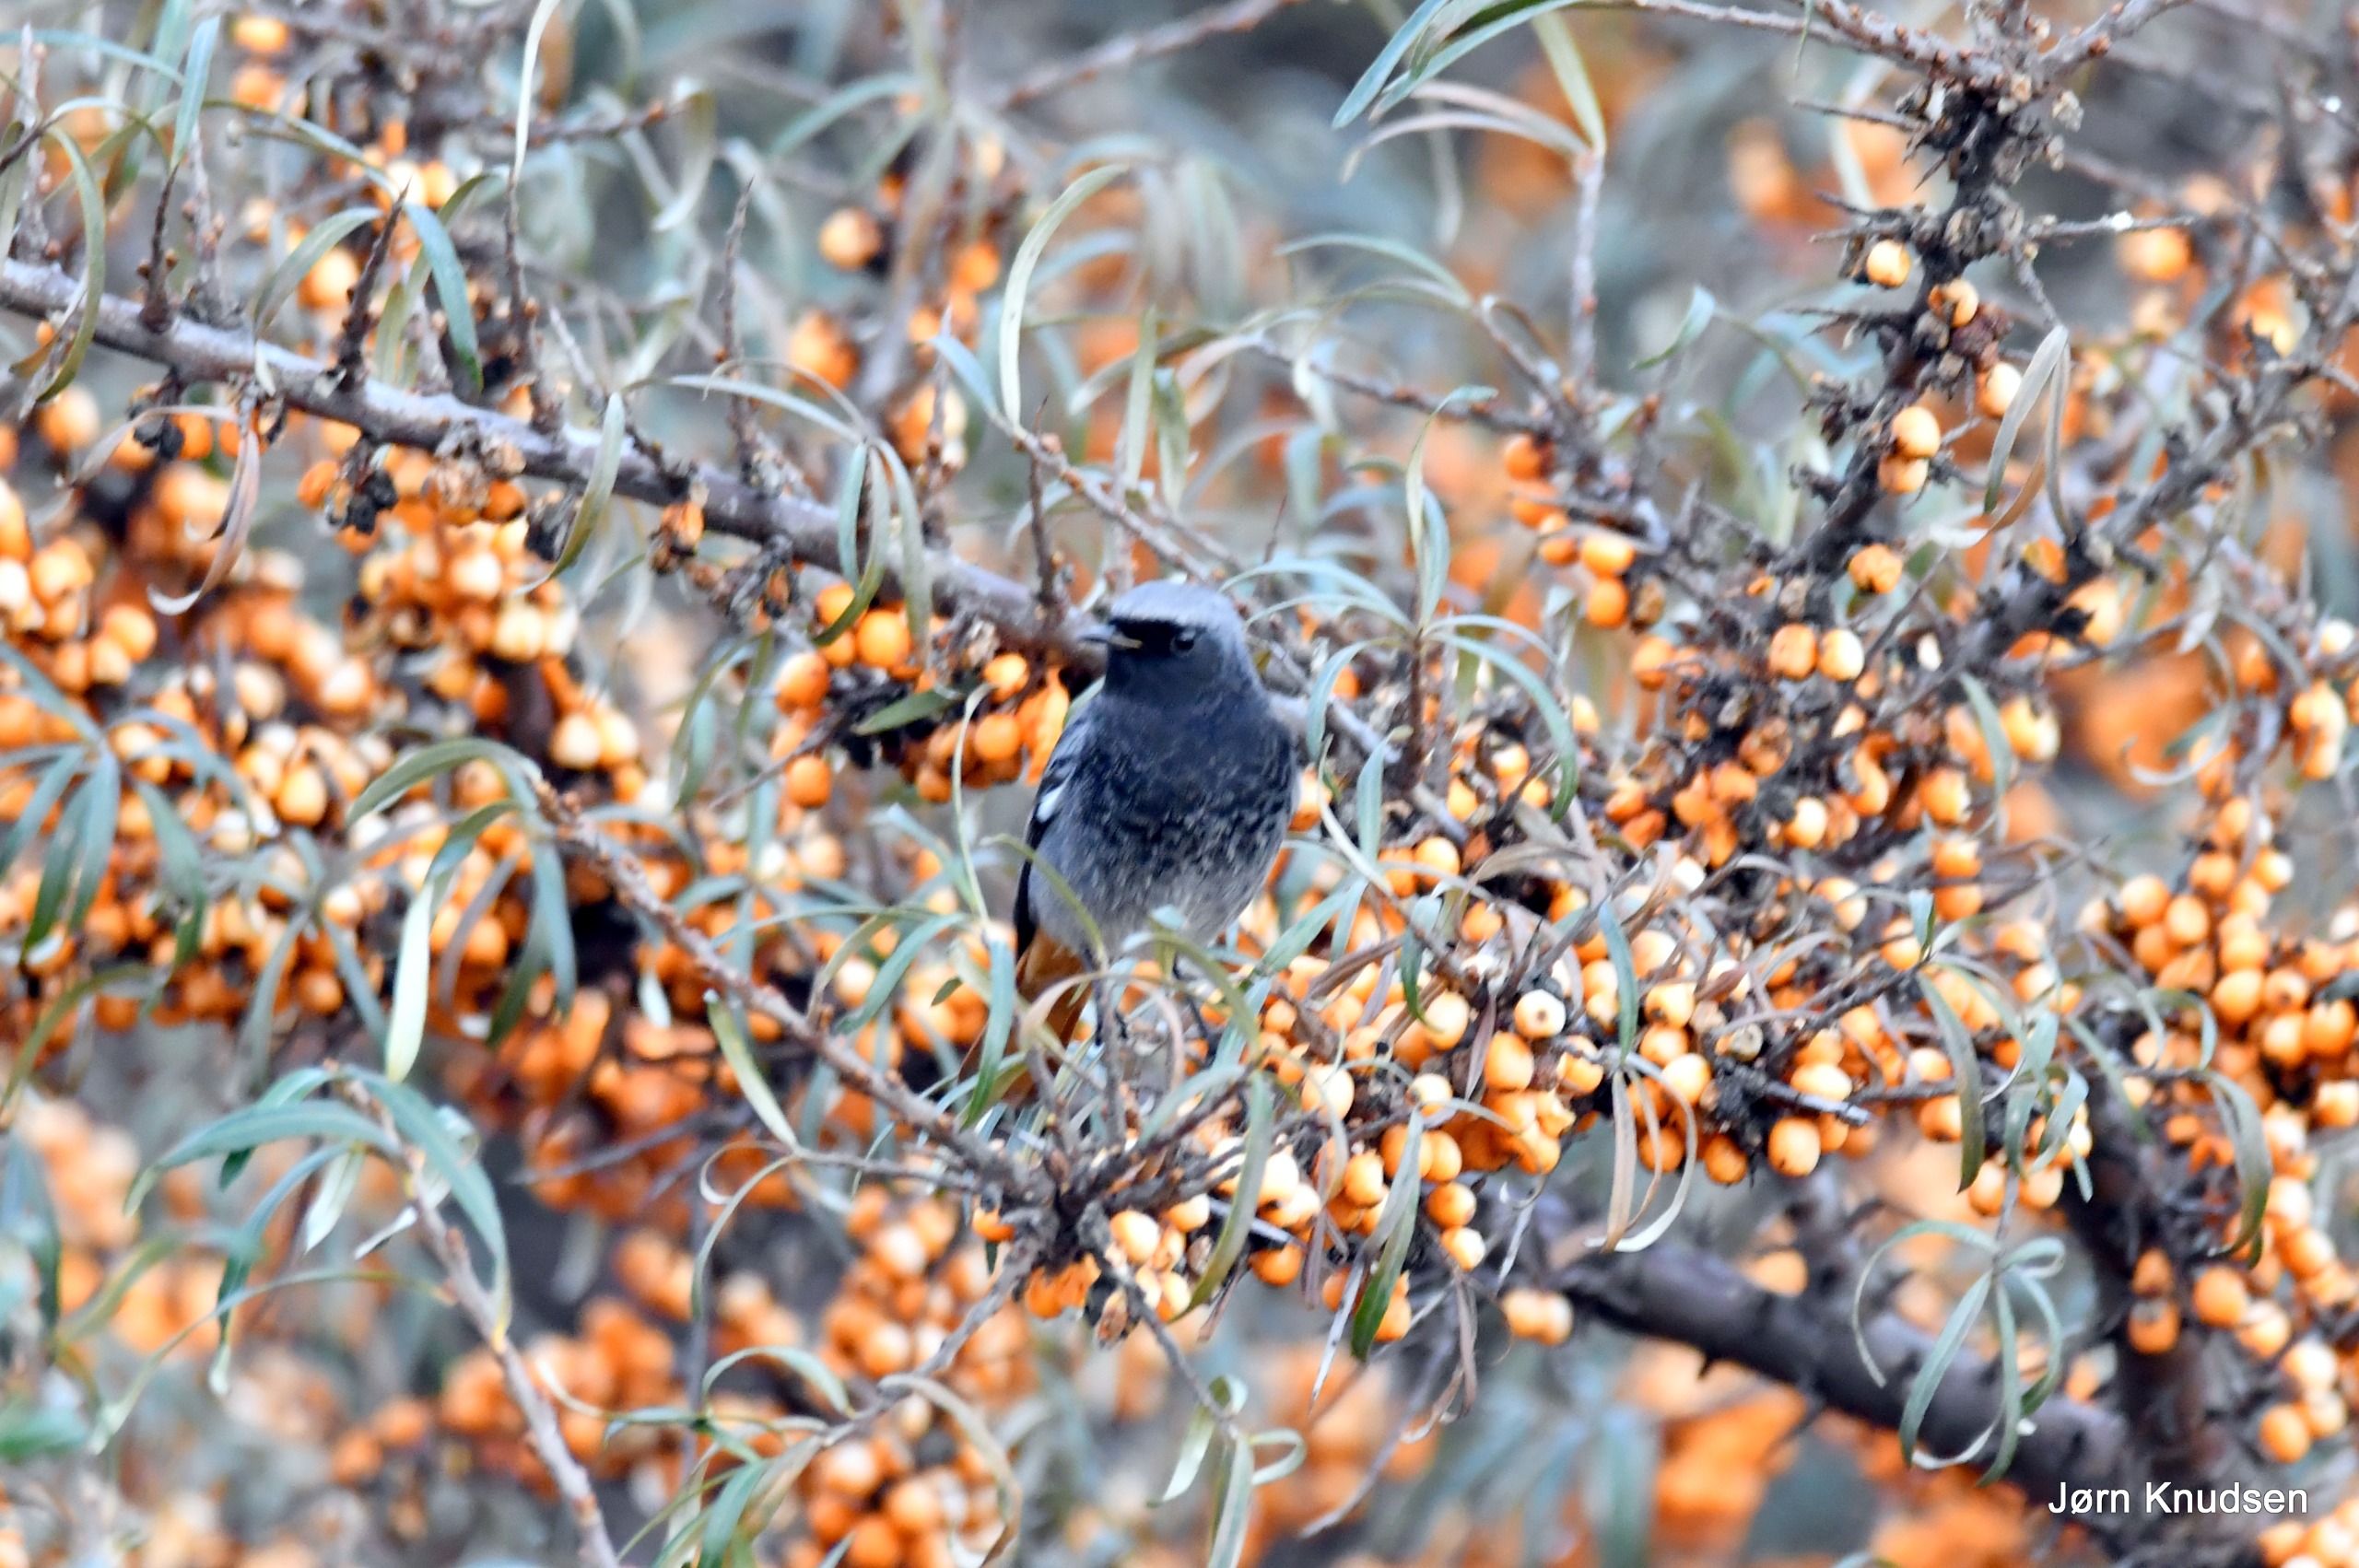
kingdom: Animalia
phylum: Chordata
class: Aves
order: Passeriformes
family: Muscicapidae
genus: Phoenicurus
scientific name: Phoenicurus ochruros
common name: Husrødstjert
